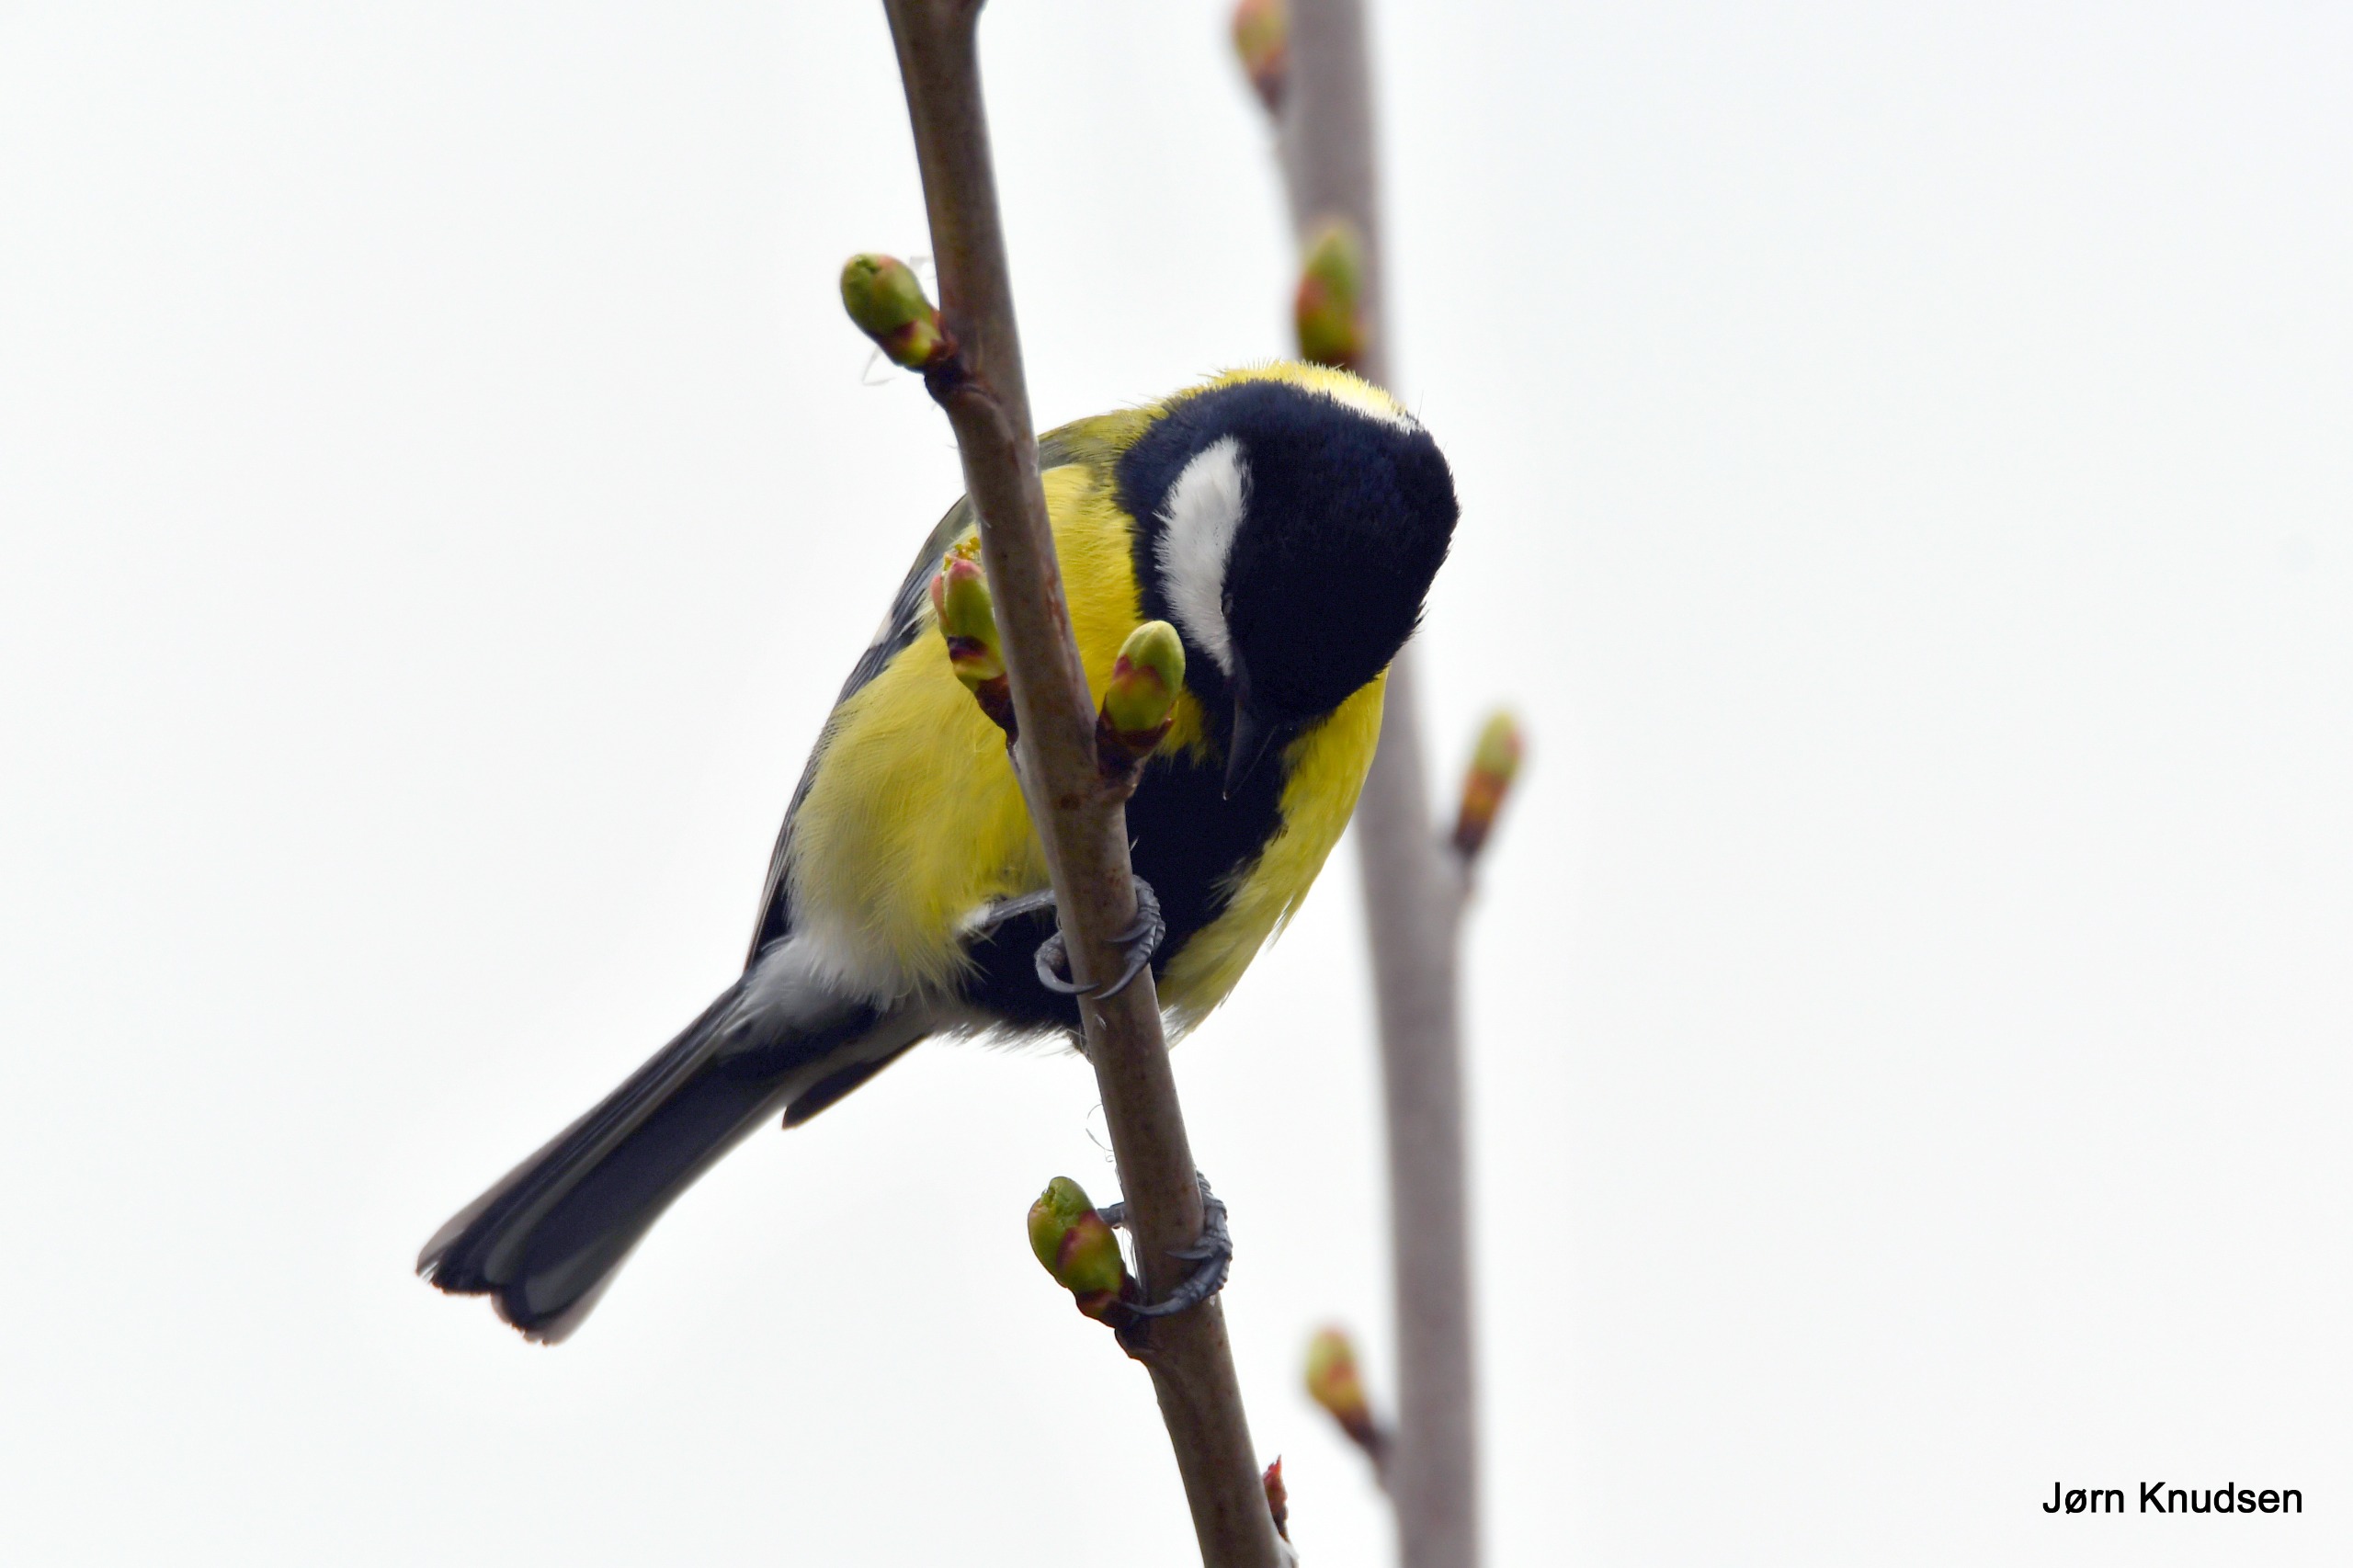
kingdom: Animalia
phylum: Chordata
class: Aves
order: Passeriformes
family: Paridae
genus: Parus
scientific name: Parus major
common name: Musvit
